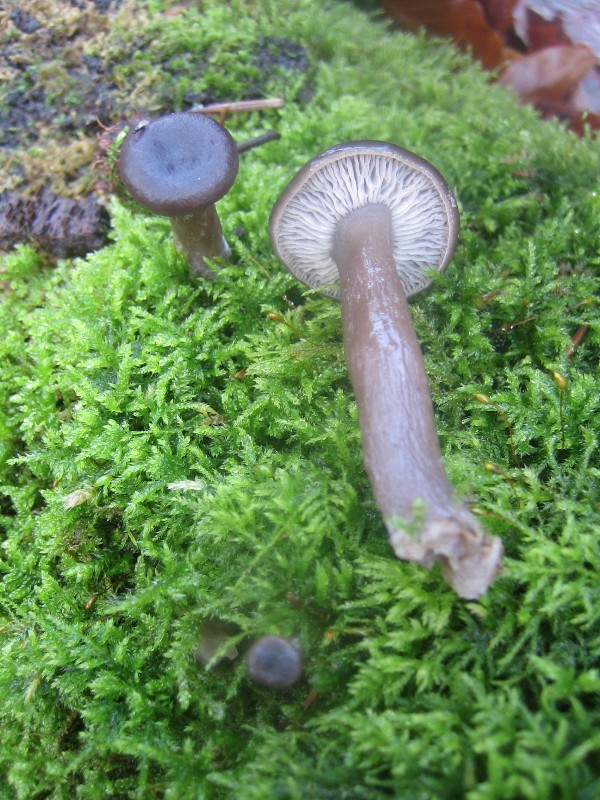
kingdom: Fungi
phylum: Basidiomycota
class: Agaricomycetes
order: Agaricales
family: Pseudoclitocybaceae
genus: Pseudoclitocybe
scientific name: Pseudoclitocybe cyathiformis
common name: almindelig bægertragthat
